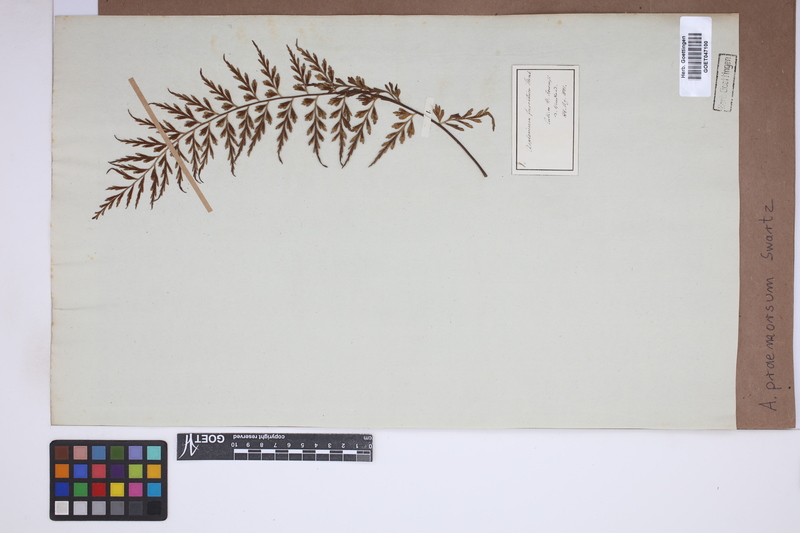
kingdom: Plantae
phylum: Tracheophyta
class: Polypodiopsida
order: Polypodiales
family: Aspleniaceae
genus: Asplenium
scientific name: Asplenium praemorsum
